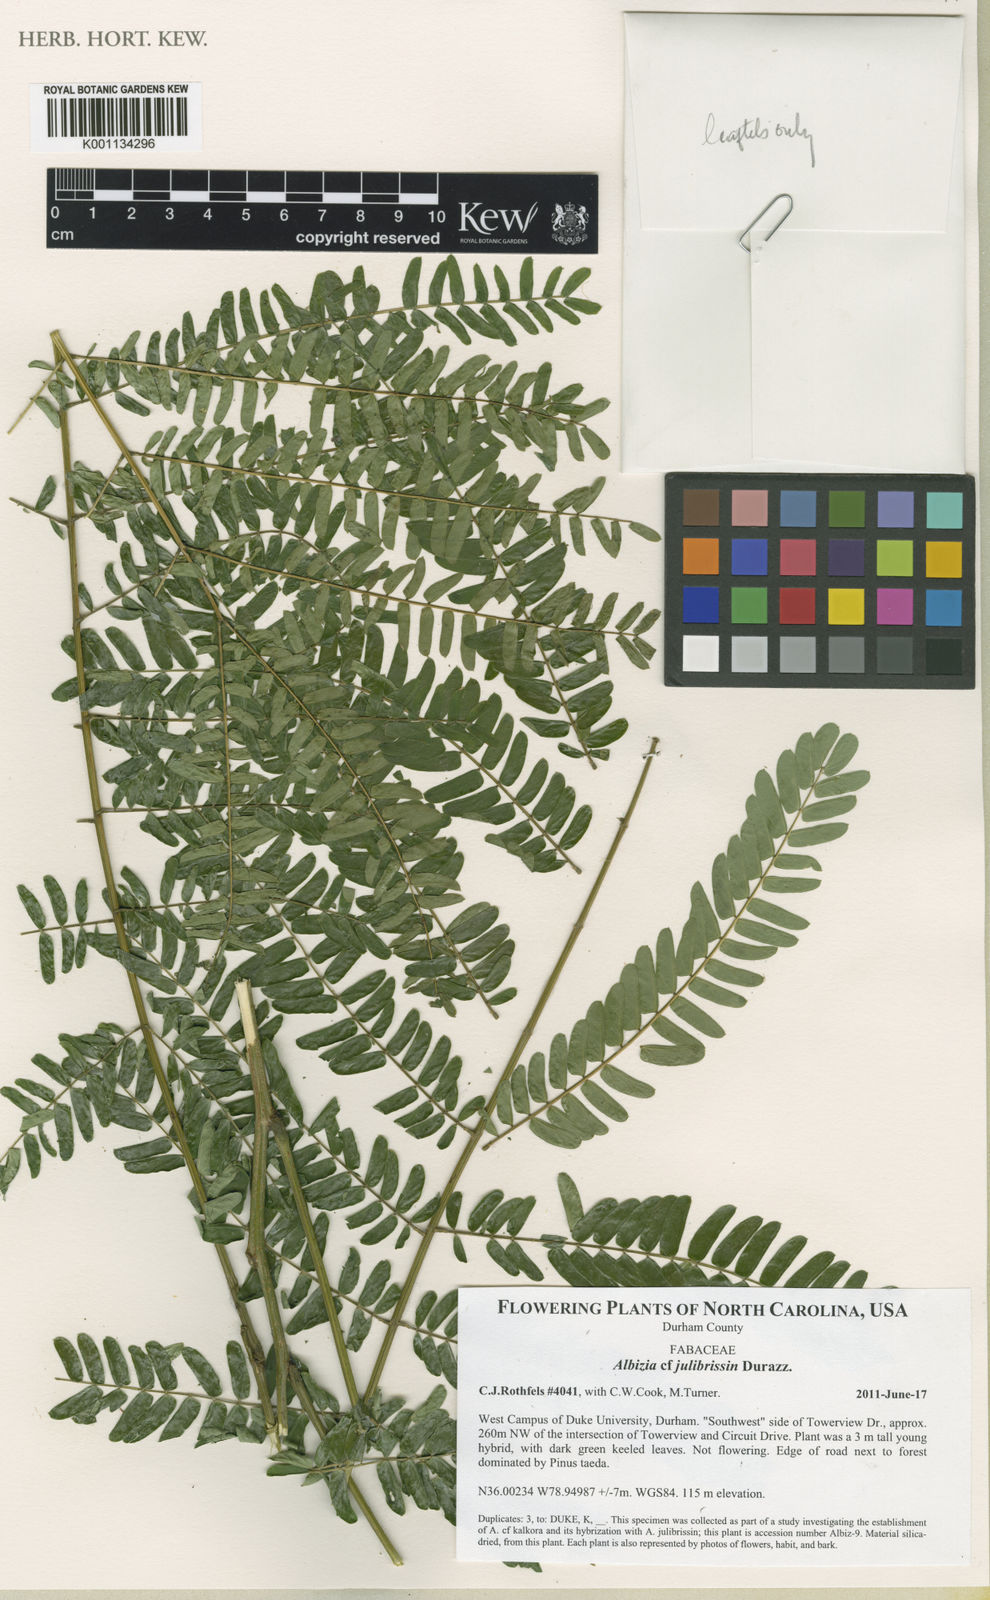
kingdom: Plantae
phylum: Tracheophyta
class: Magnoliopsida
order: Fabales
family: Fabaceae
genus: Albizia
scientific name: Albizia julibrissin
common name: Silktree
